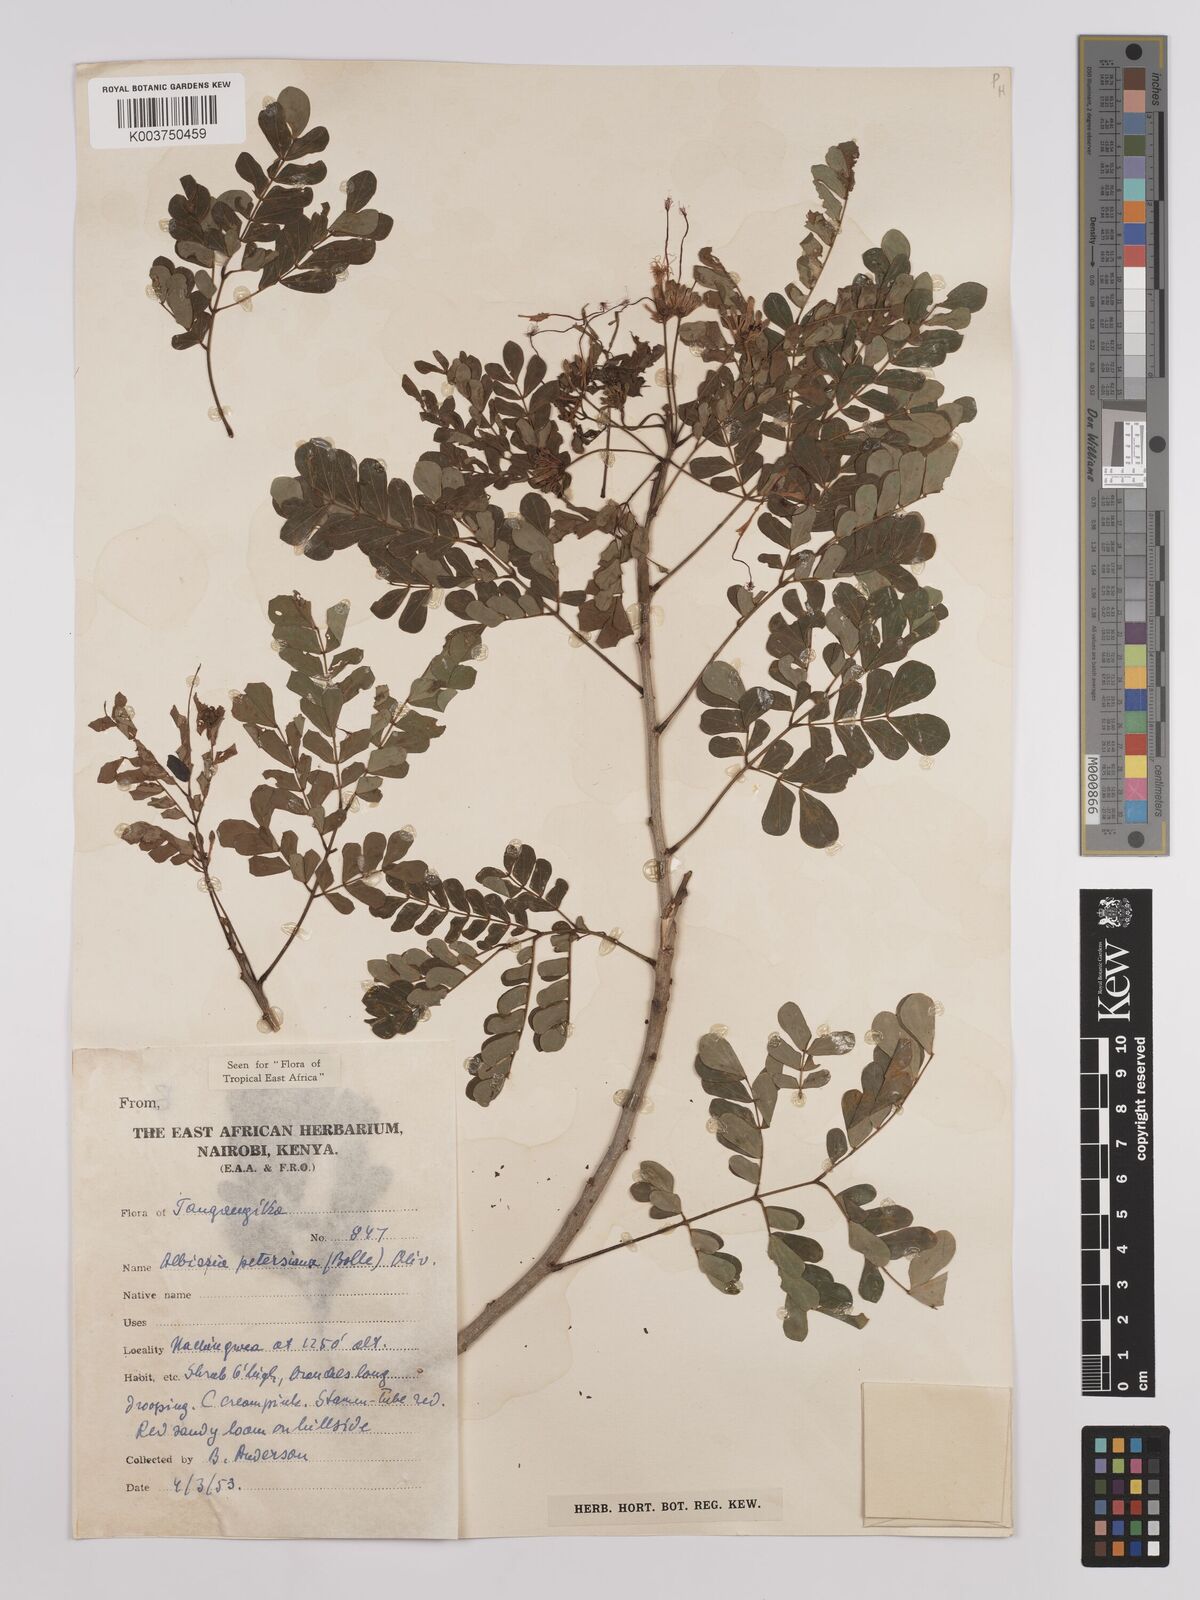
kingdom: Plantae
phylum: Tracheophyta
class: Magnoliopsida
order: Fabales
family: Fabaceae
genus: Albizia
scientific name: Albizia petersiana
